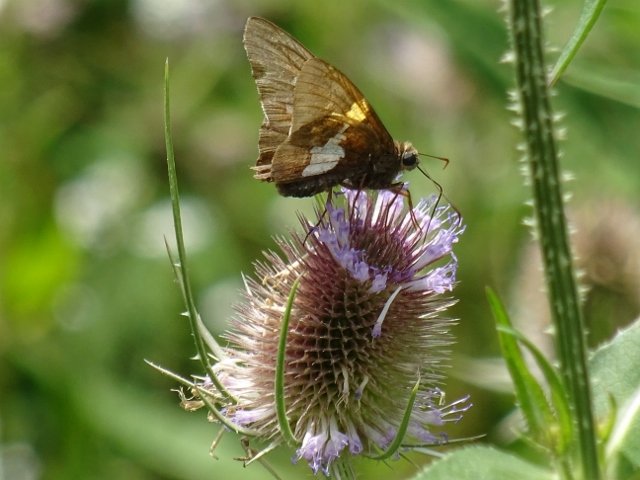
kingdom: Animalia
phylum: Arthropoda
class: Insecta
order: Lepidoptera
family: Hesperiidae
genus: Epargyreus
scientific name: Epargyreus clarus
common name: Silver-spotted Skipper
